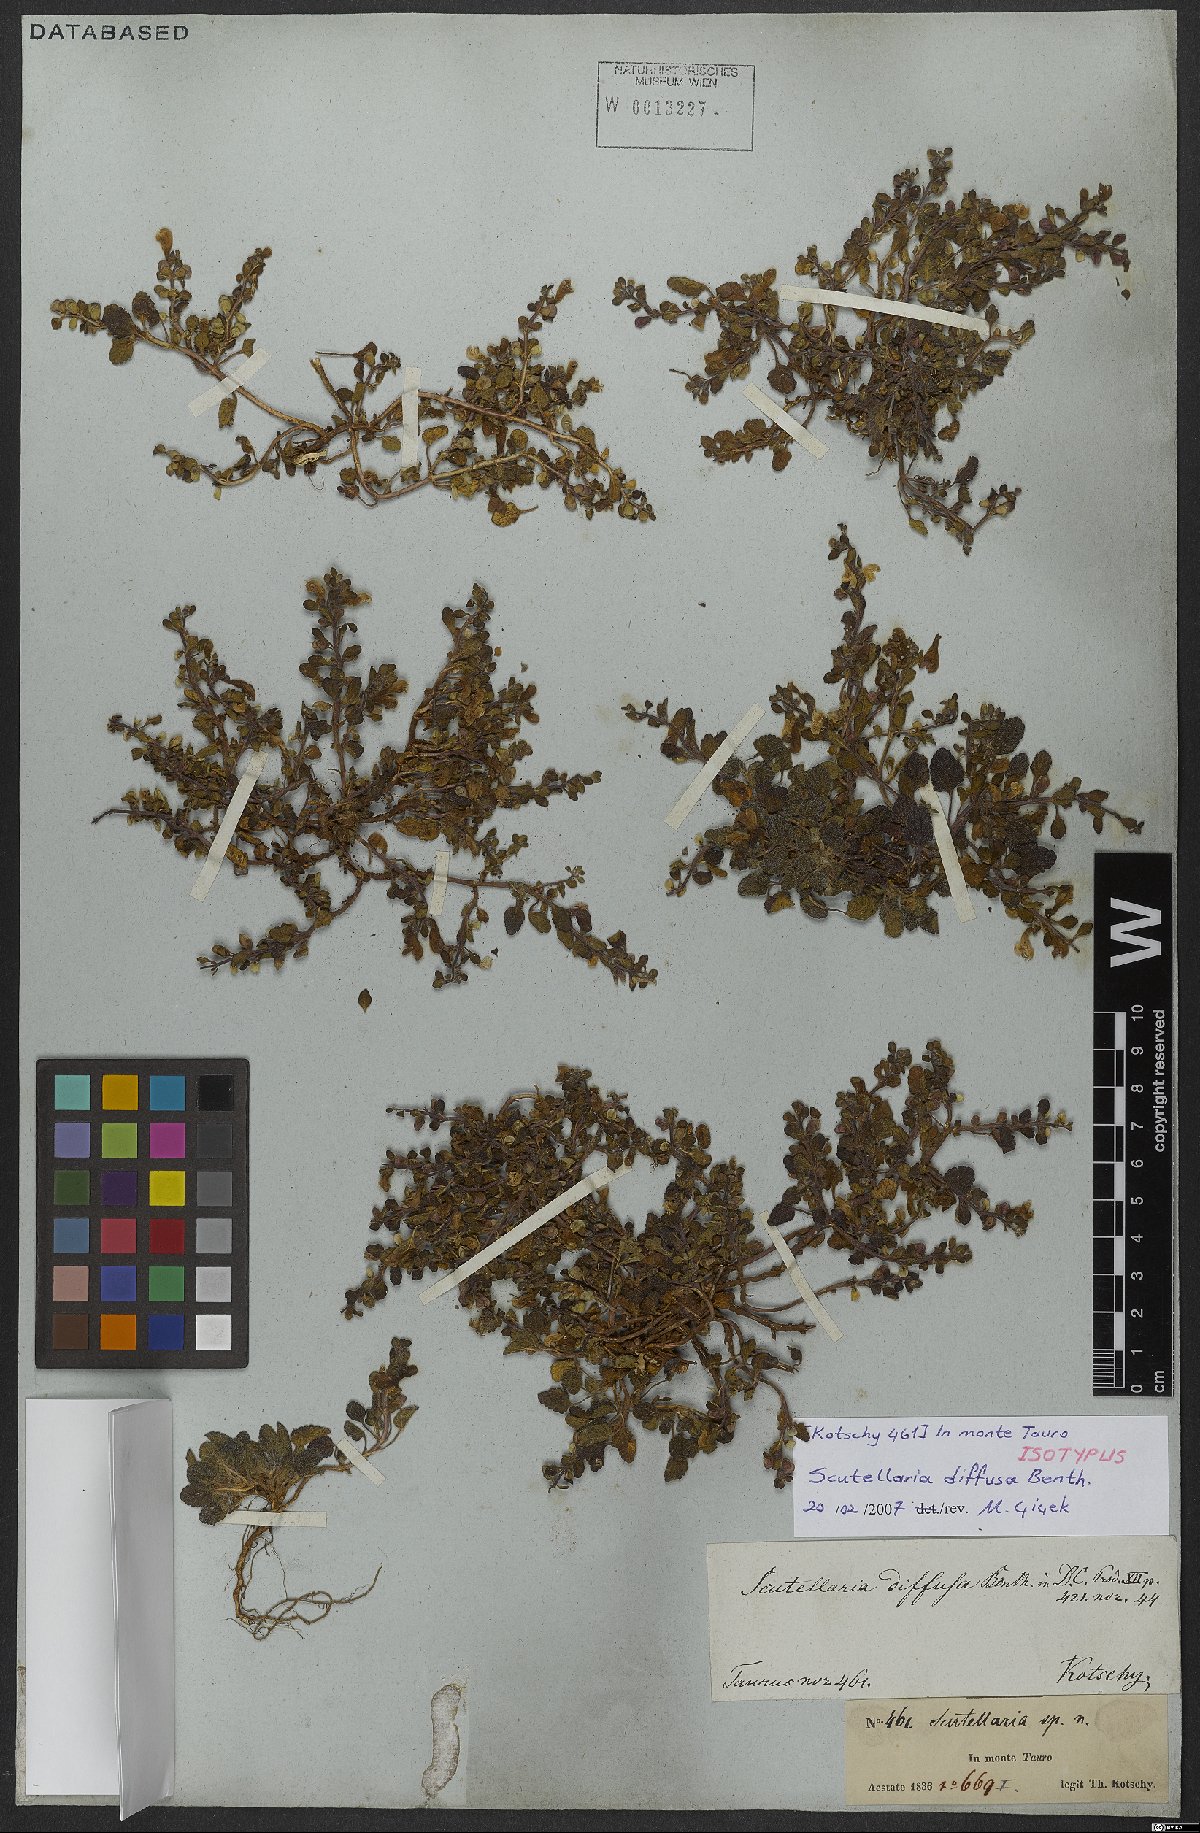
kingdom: Plantae
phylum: Tracheophyta
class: Magnoliopsida
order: Lamiales
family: Lamiaceae
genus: Scutellaria
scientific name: Scutellaria diffusa
